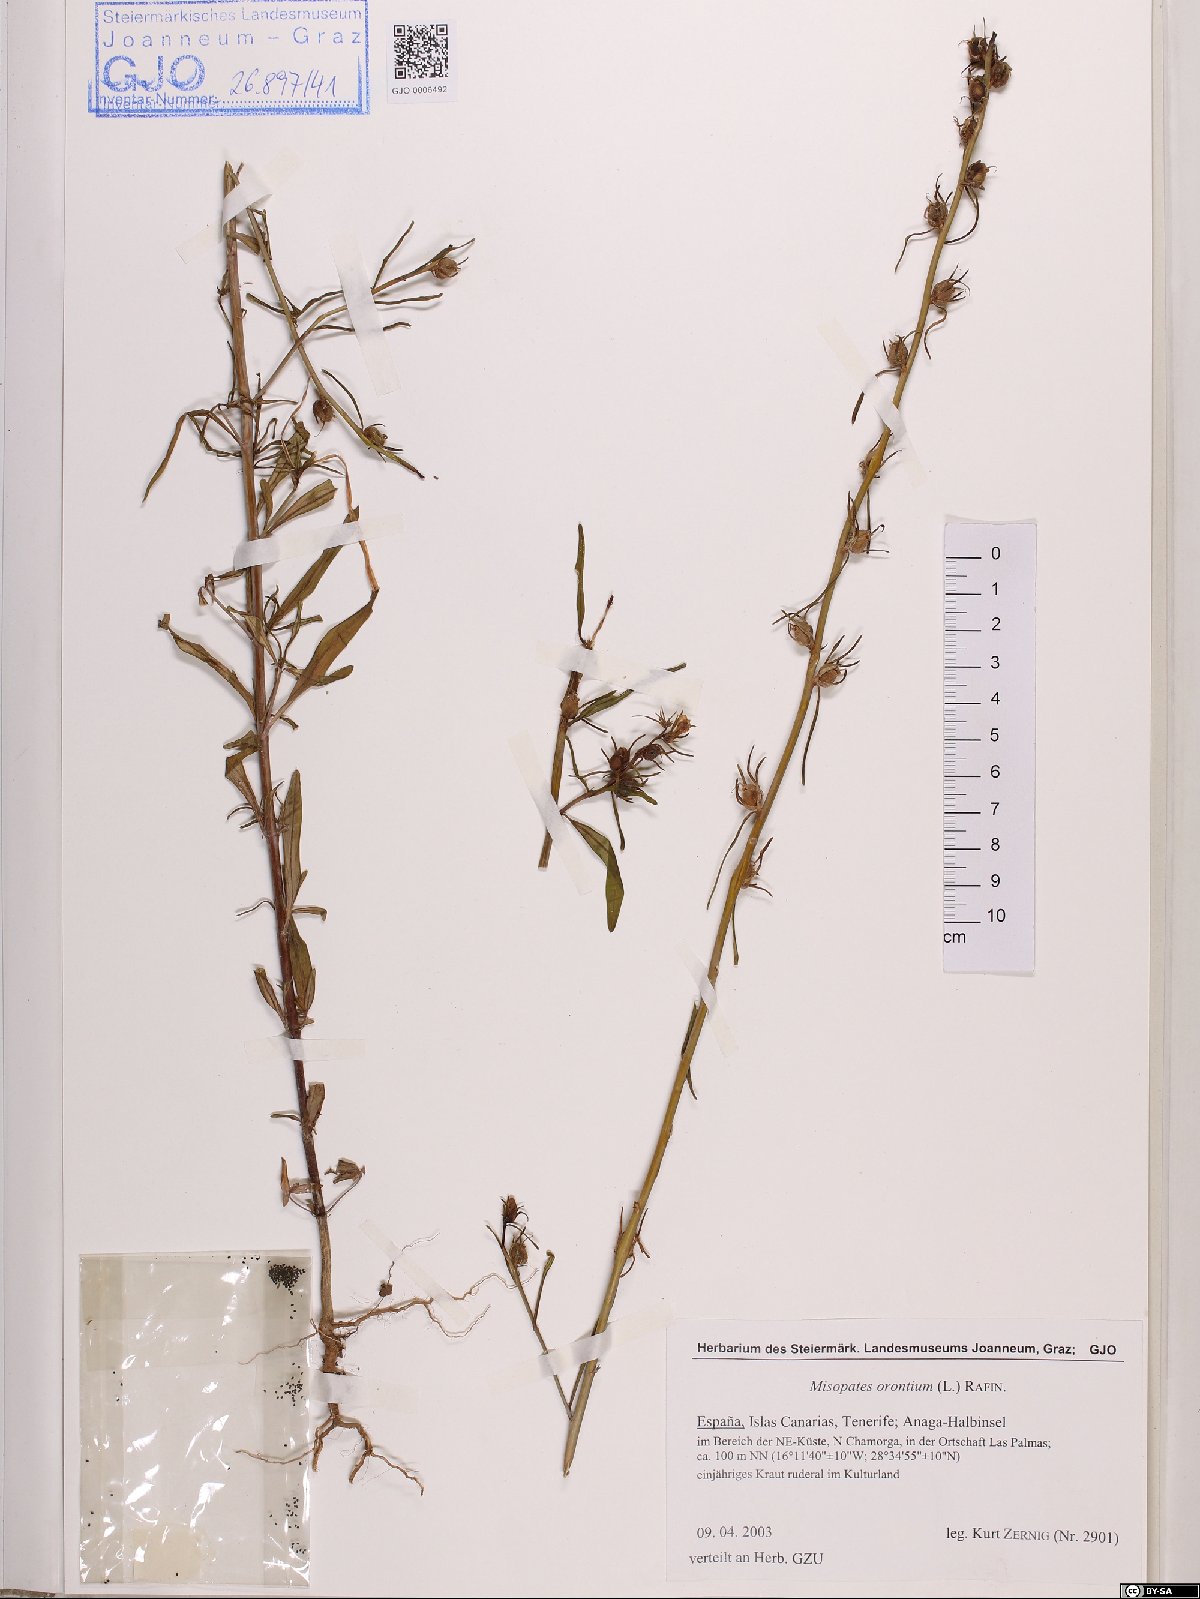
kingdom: Plantae
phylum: Tracheophyta
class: Magnoliopsida
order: Lamiales
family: Plantaginaceae
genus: Misopates
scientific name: Misopates orontium
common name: Weasel's-snout
